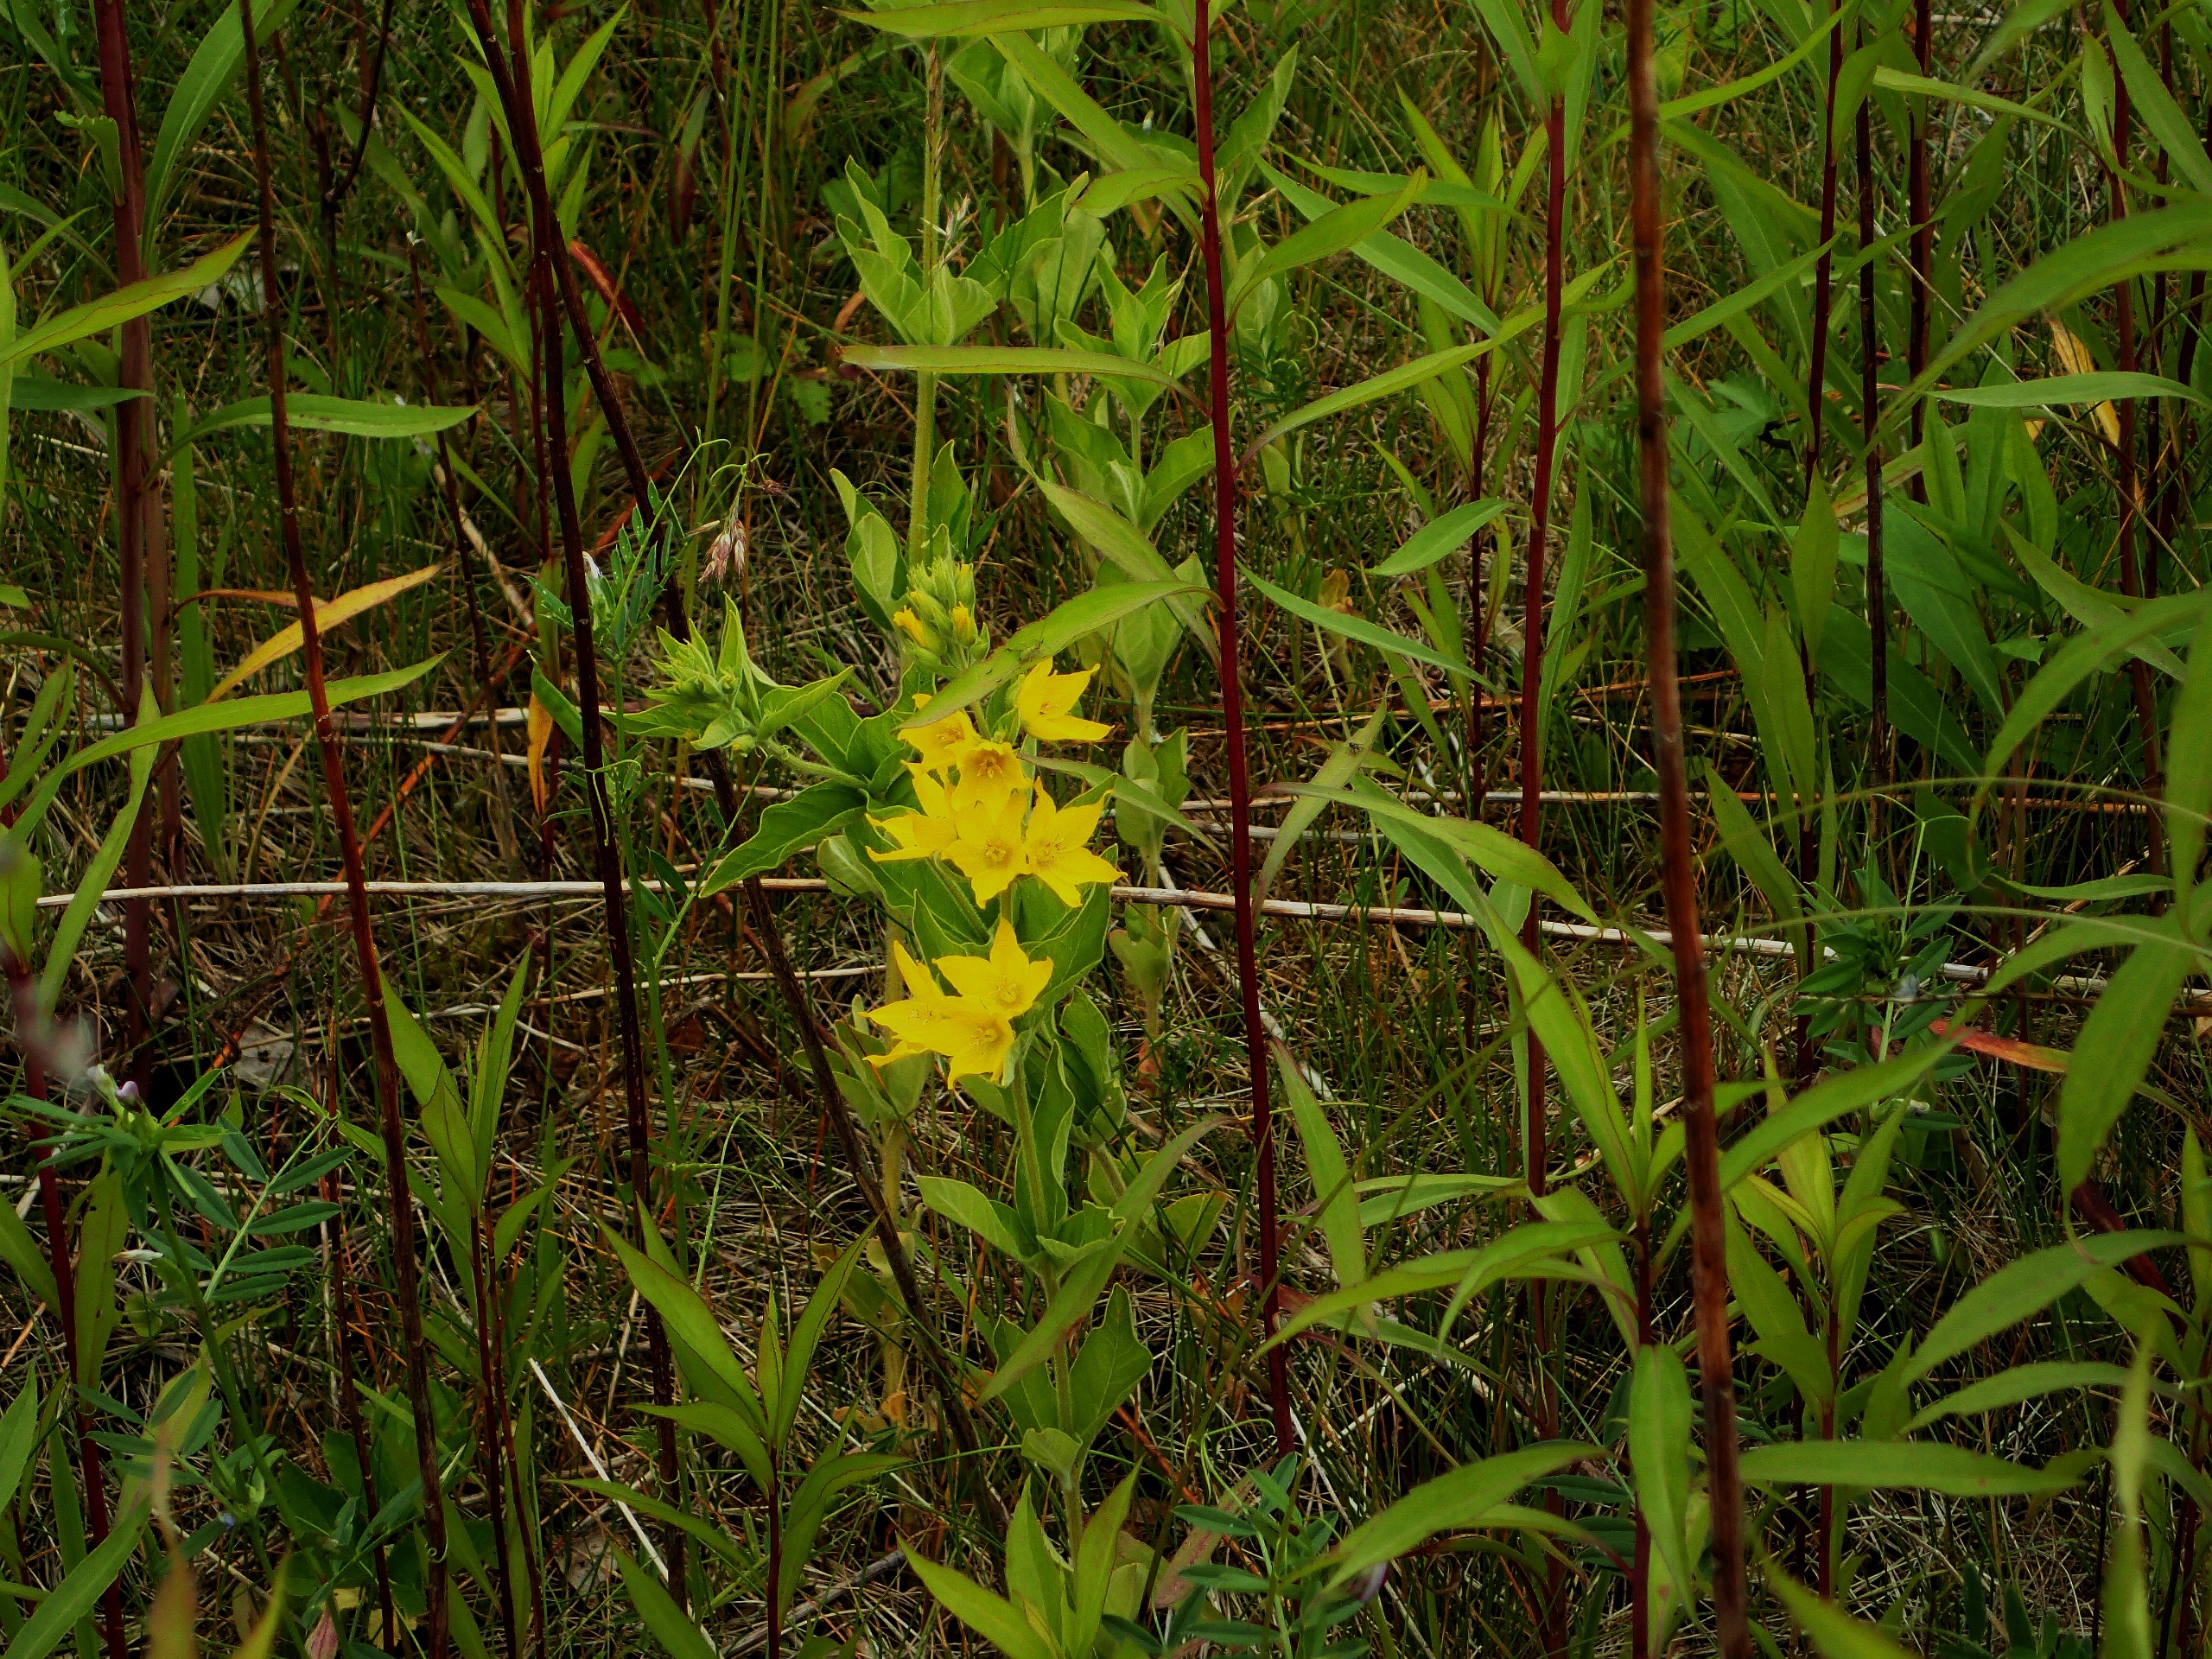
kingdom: Plantae
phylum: Tracheophyta
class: Magnoliopsida
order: Ericales
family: Primulaceae
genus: Lysimachia
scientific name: Lysimachia punctata
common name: Prikbladet fredløs
